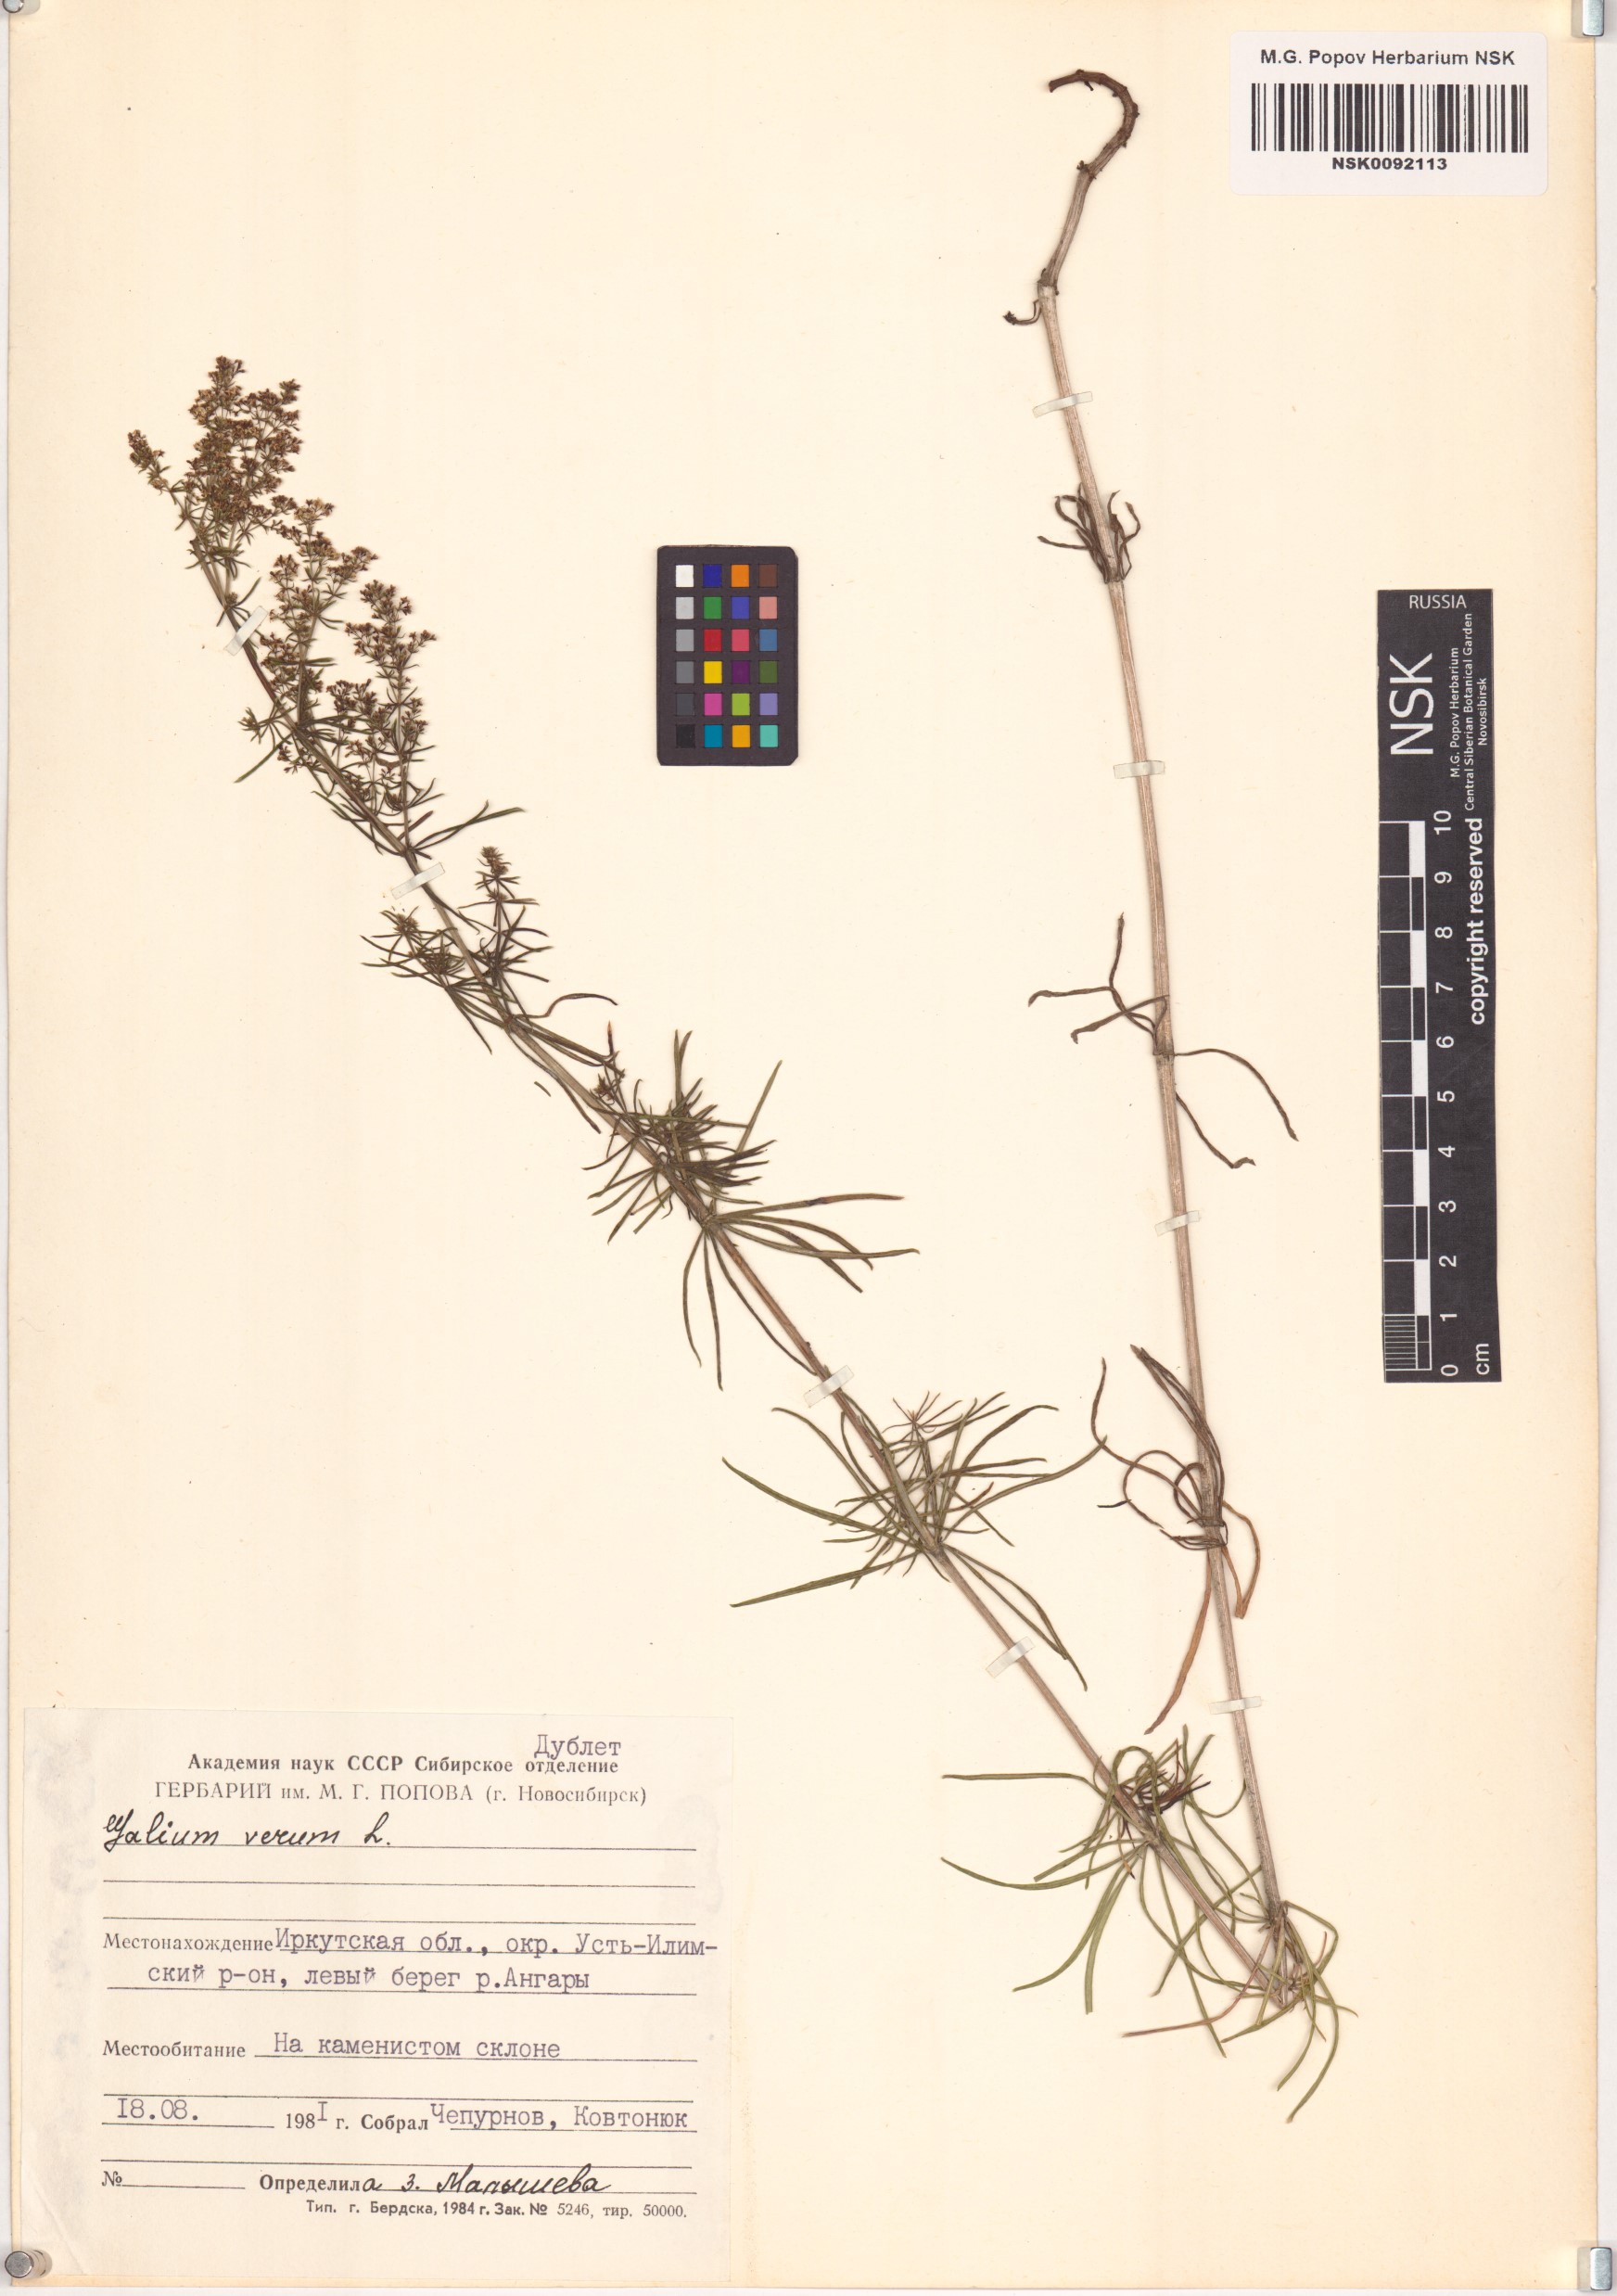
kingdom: Plantae
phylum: Tracheophyta
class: Magnoliopsida
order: Gentianales
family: Rubiaceae
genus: Galium
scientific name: Galium verum
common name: Lady's bedstraw
